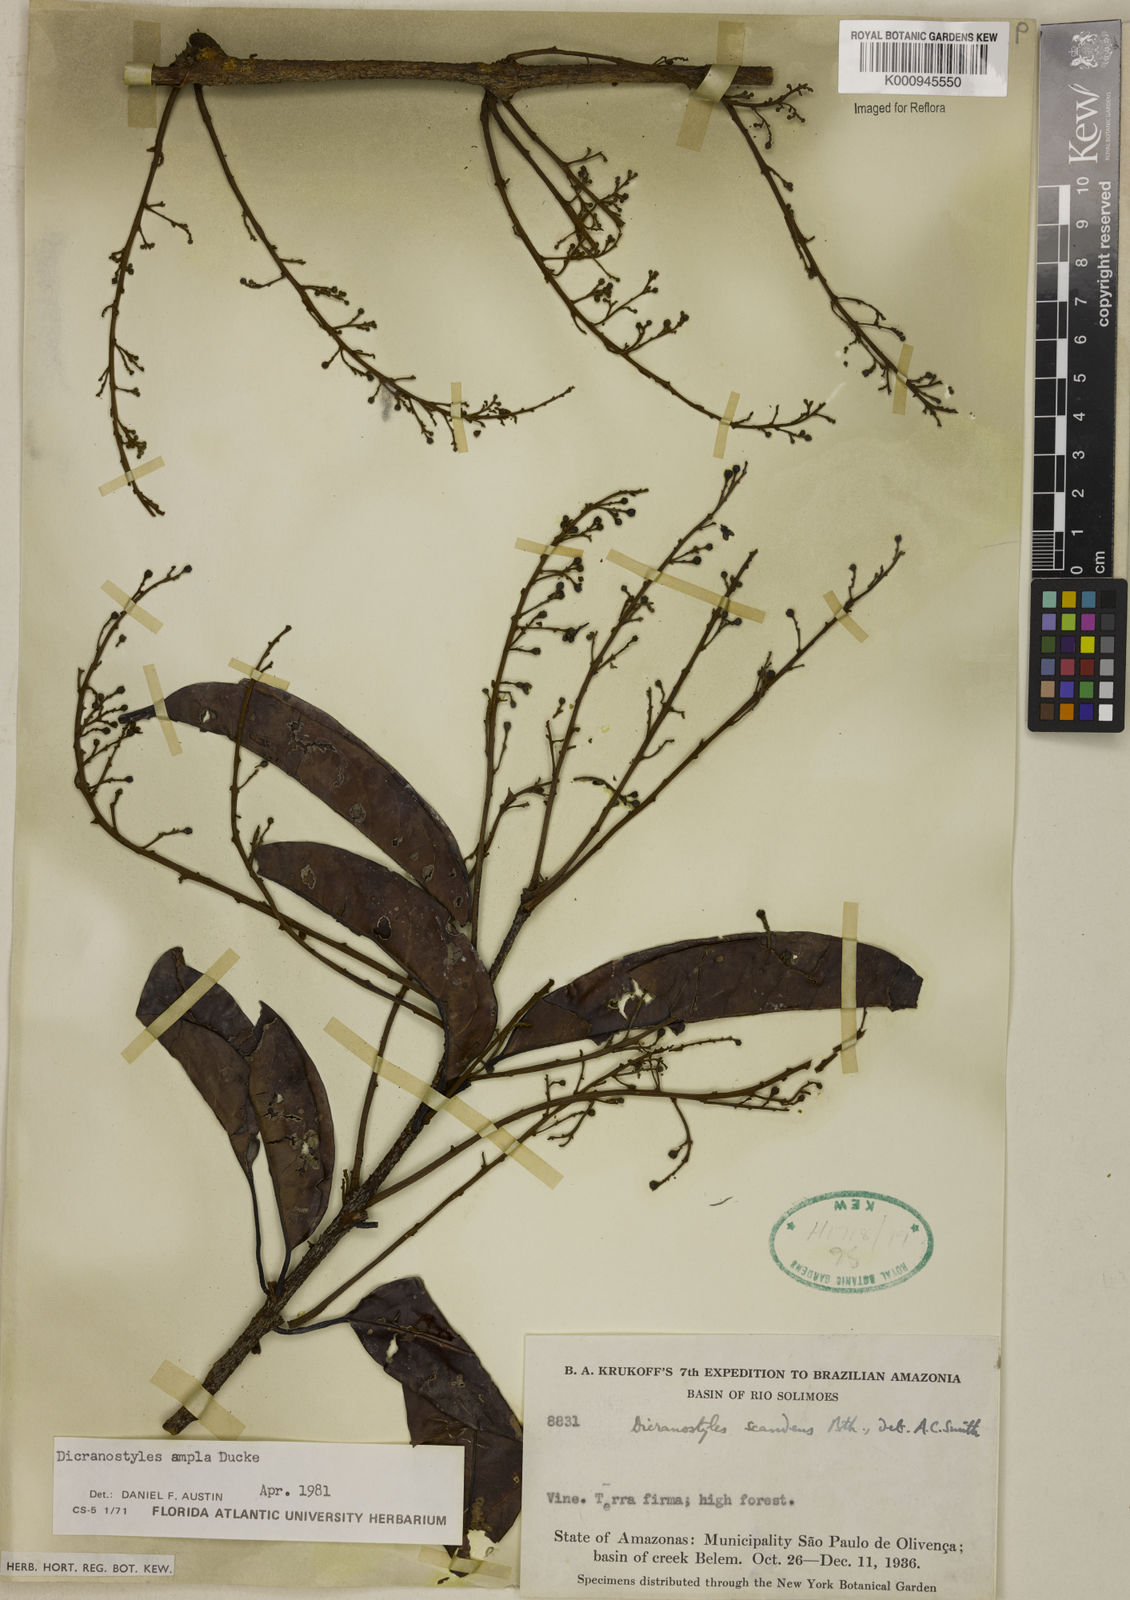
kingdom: Plantae
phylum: Tracheophyta
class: Magnoliopsida
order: Solanales
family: Convolvulaceae
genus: Dicranostyles
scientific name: Dicranostyles ampla
